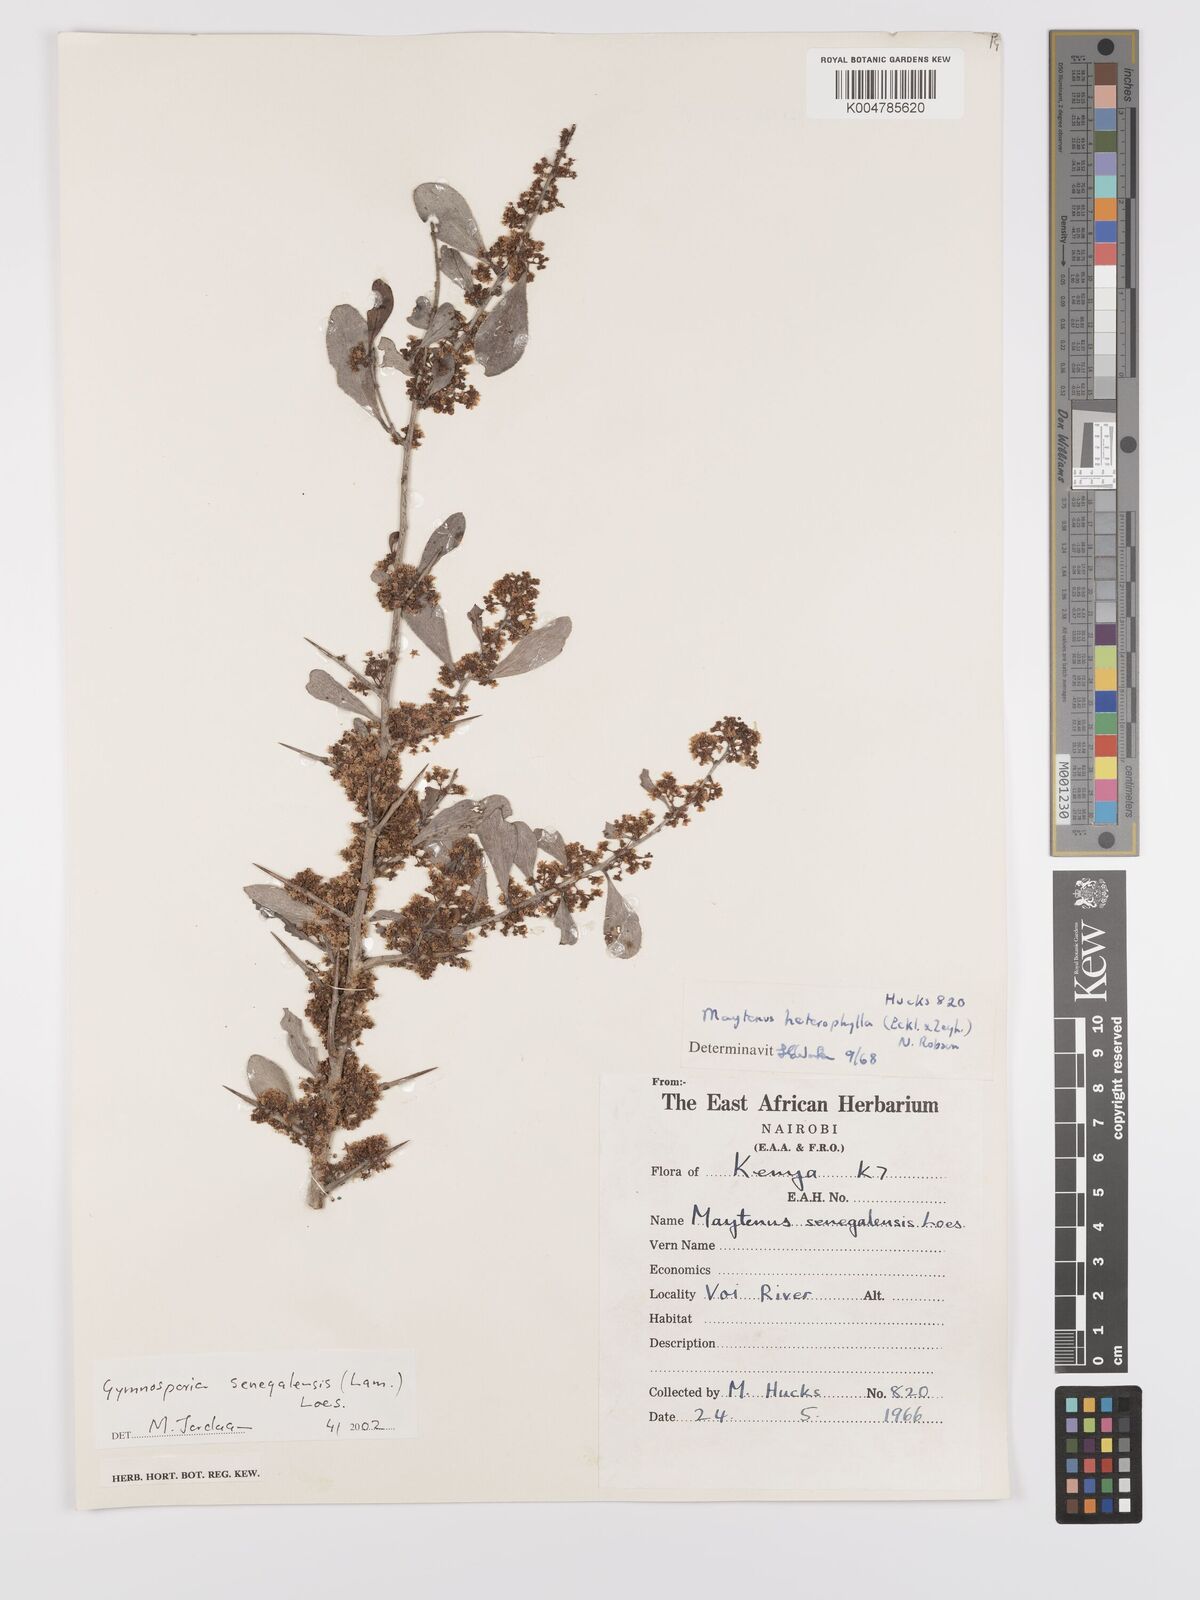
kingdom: Plantae
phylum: Tracheophyta
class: Magnoliopsida
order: Celastrales
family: Celastraceae
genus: Gymnosporia
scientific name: Gymnosporia senegalensis
